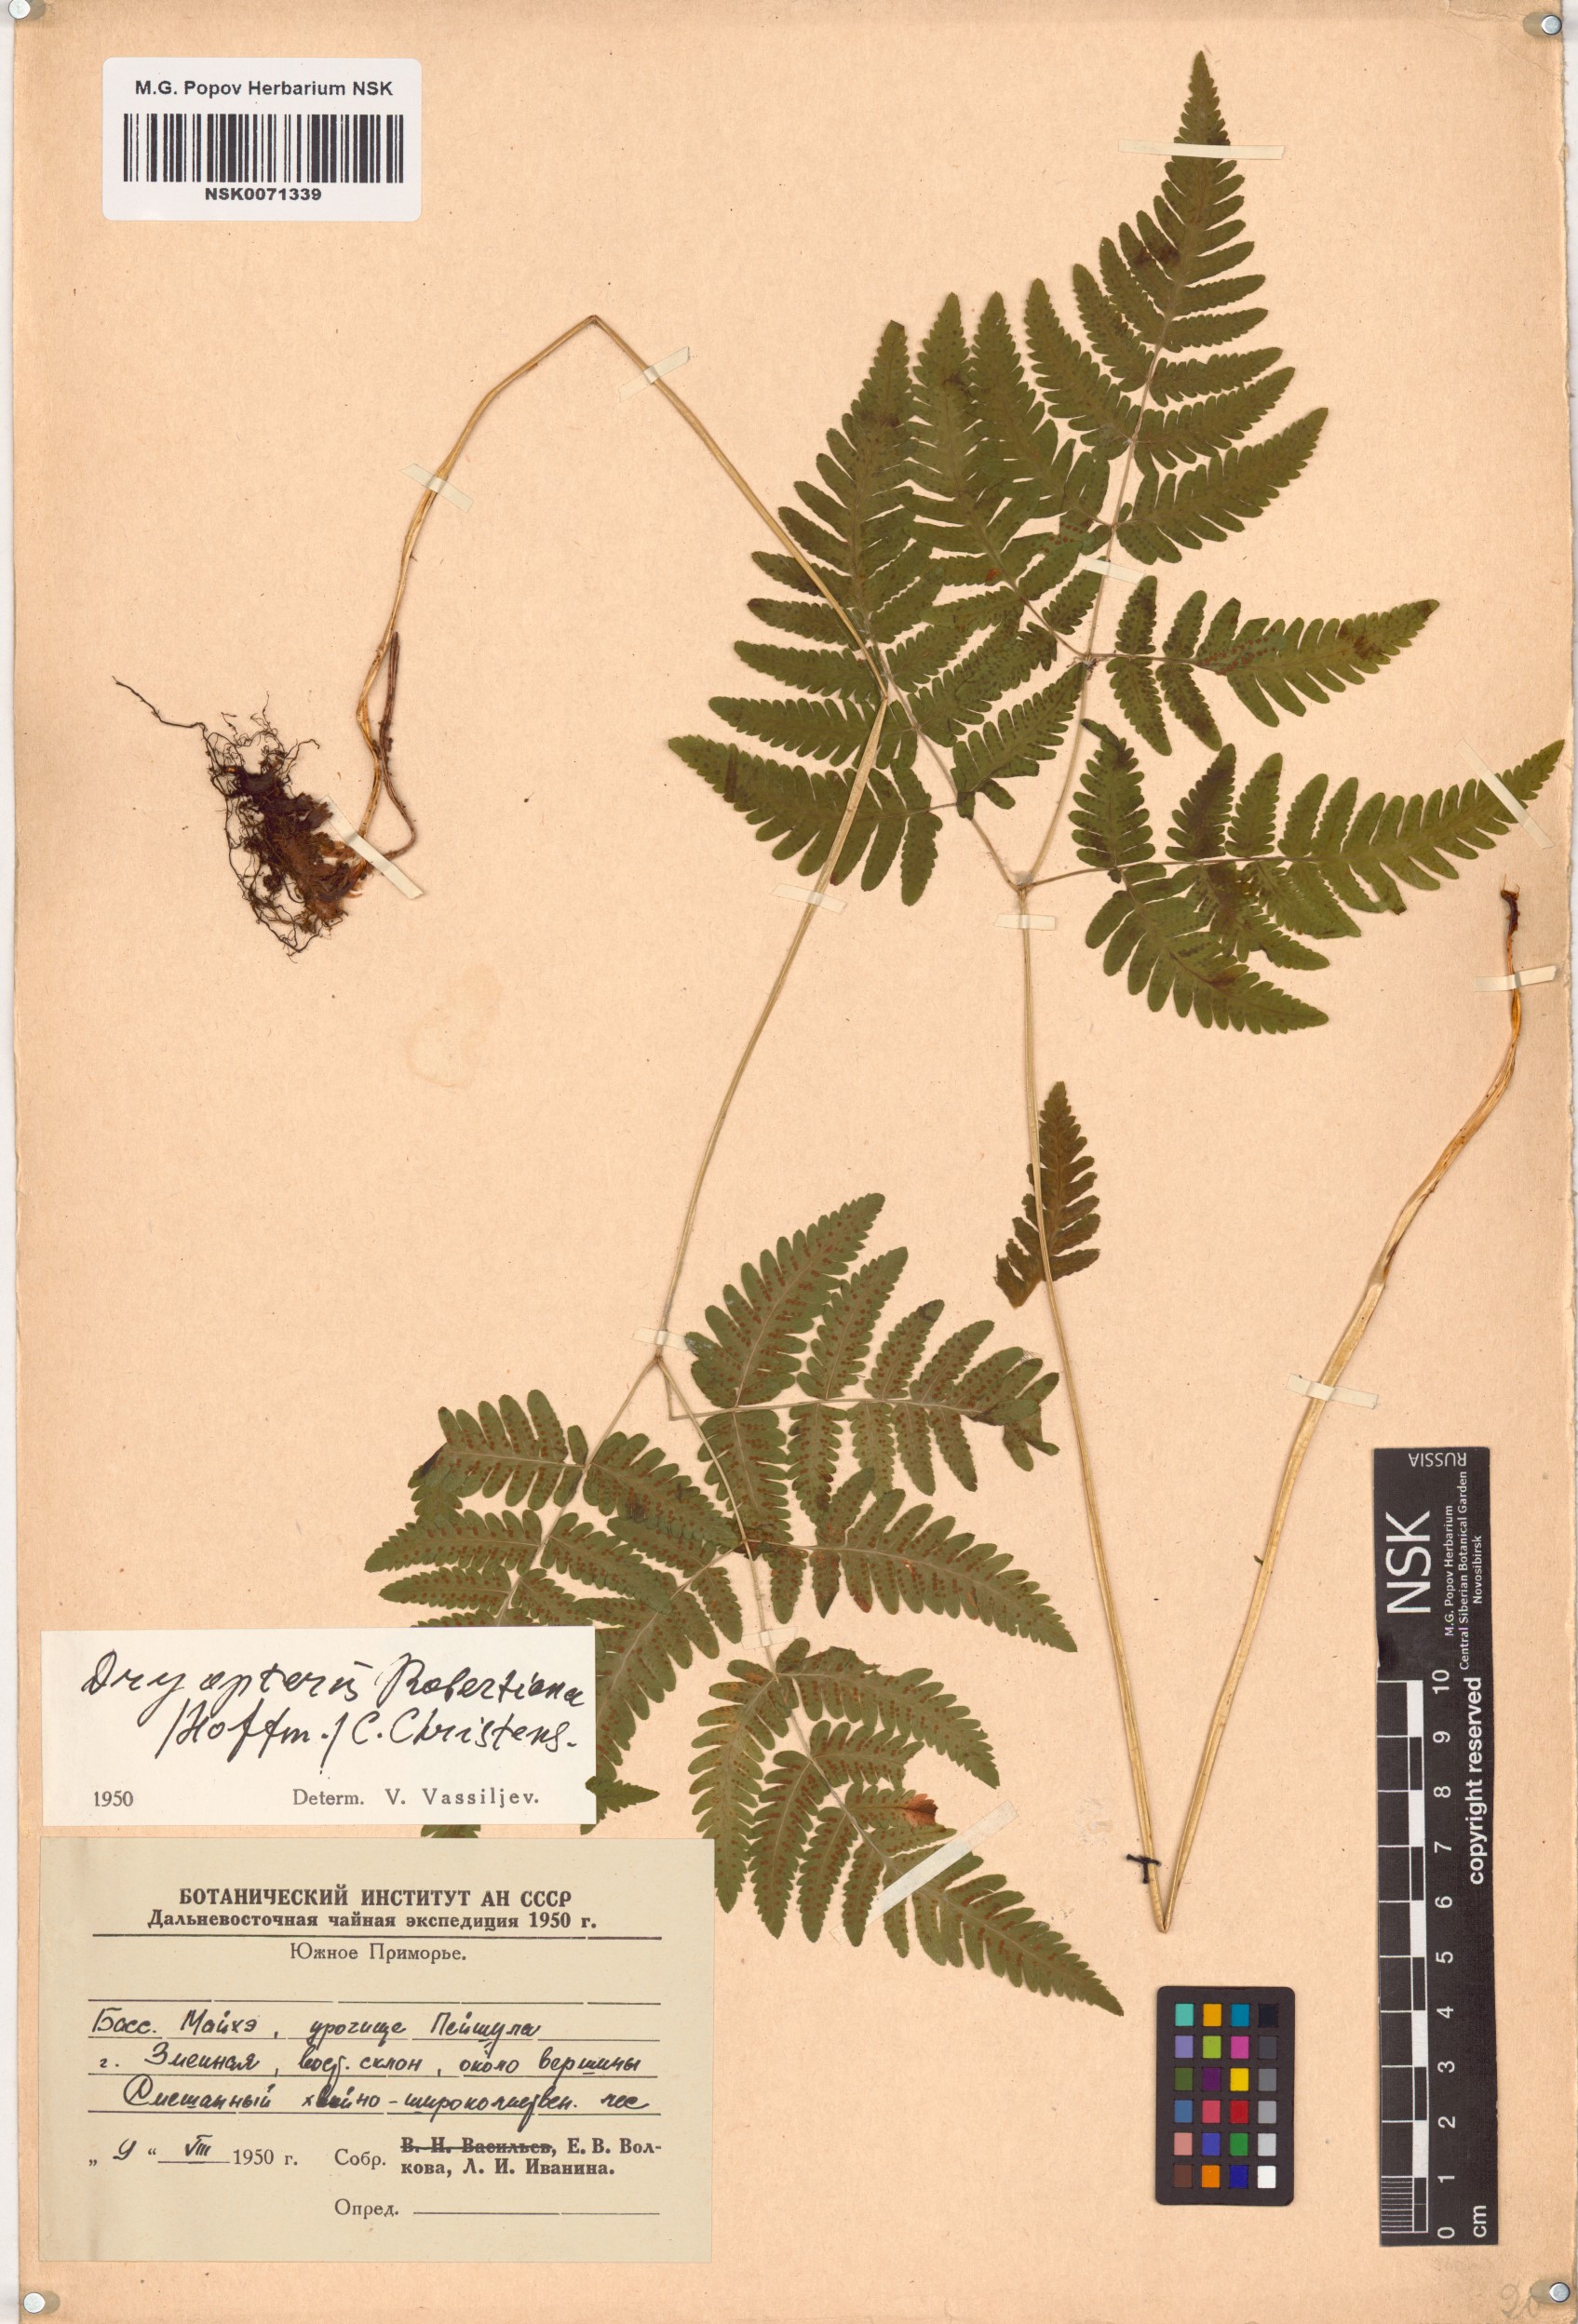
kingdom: Plantae
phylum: Tracheophyta
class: Polypodiopsida
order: Polypodiales
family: Cystopteridaceae
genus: Gymnocarpium
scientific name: Gymnocarpium robertianum
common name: Limestone fern
